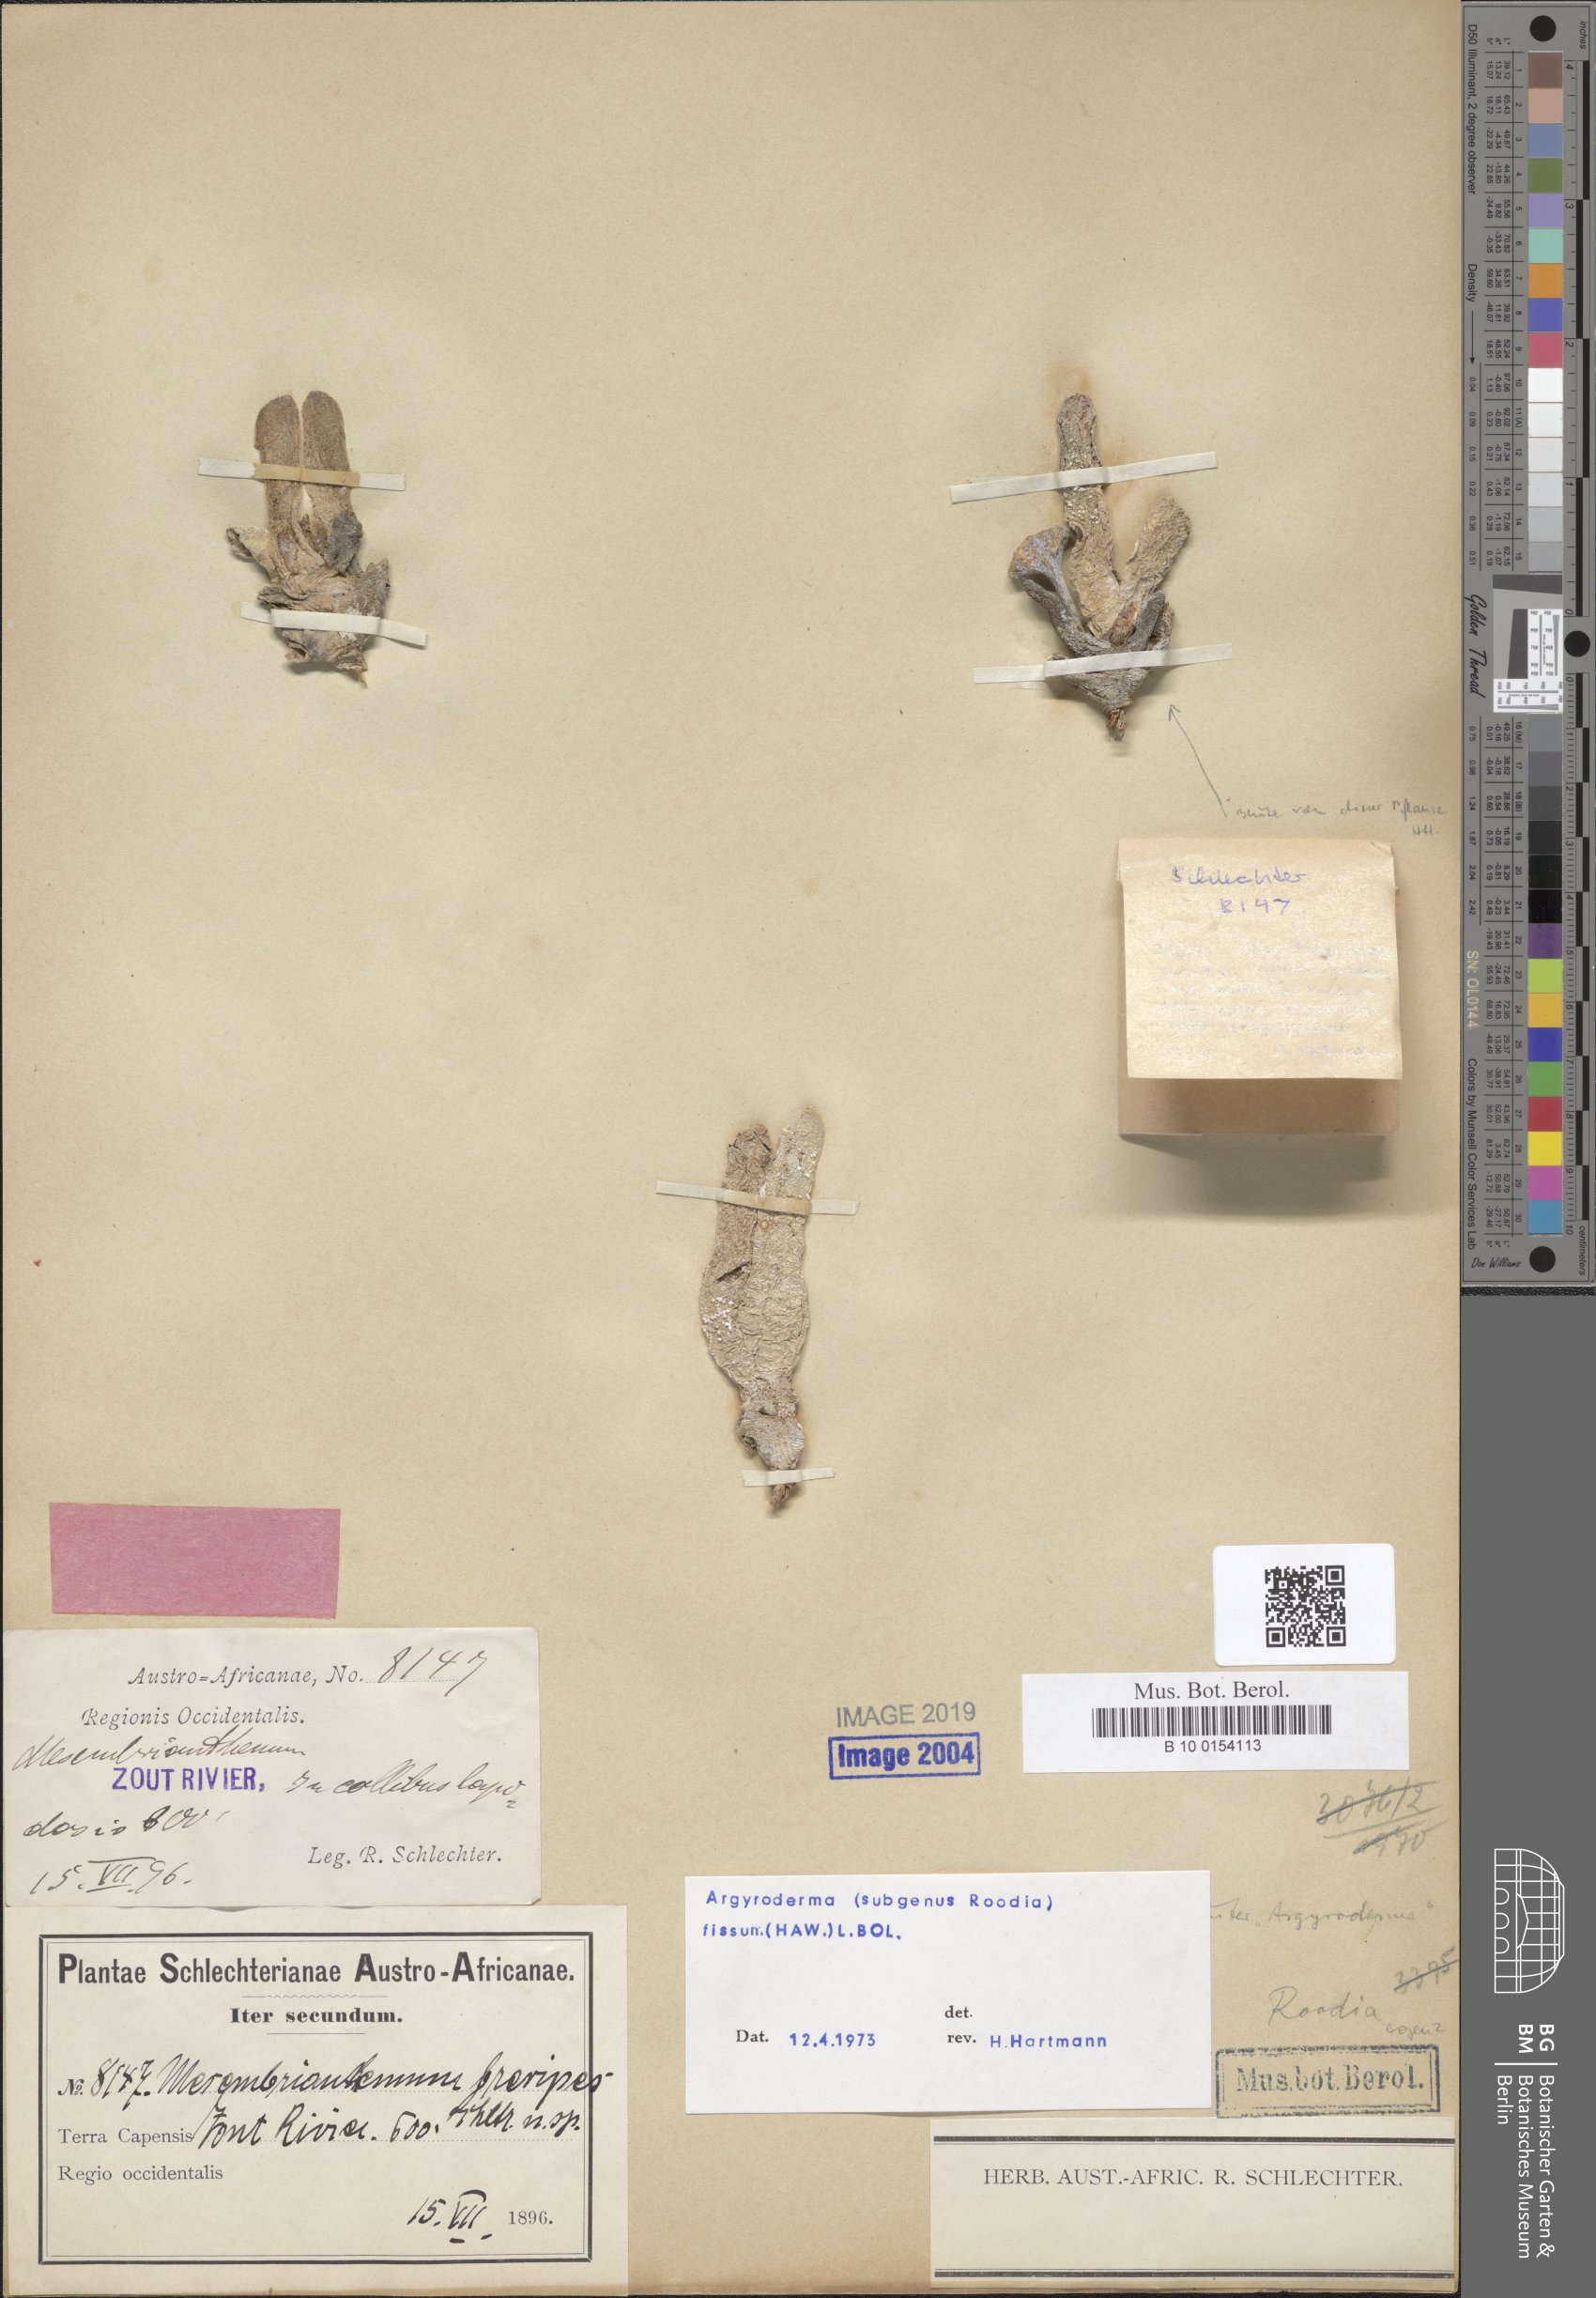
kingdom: Plantae
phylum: Tracheophyta
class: Magnoliopsida
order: Caryophyllales
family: Aizoaceae
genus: Argyroderma
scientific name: Argyroderma fissum
